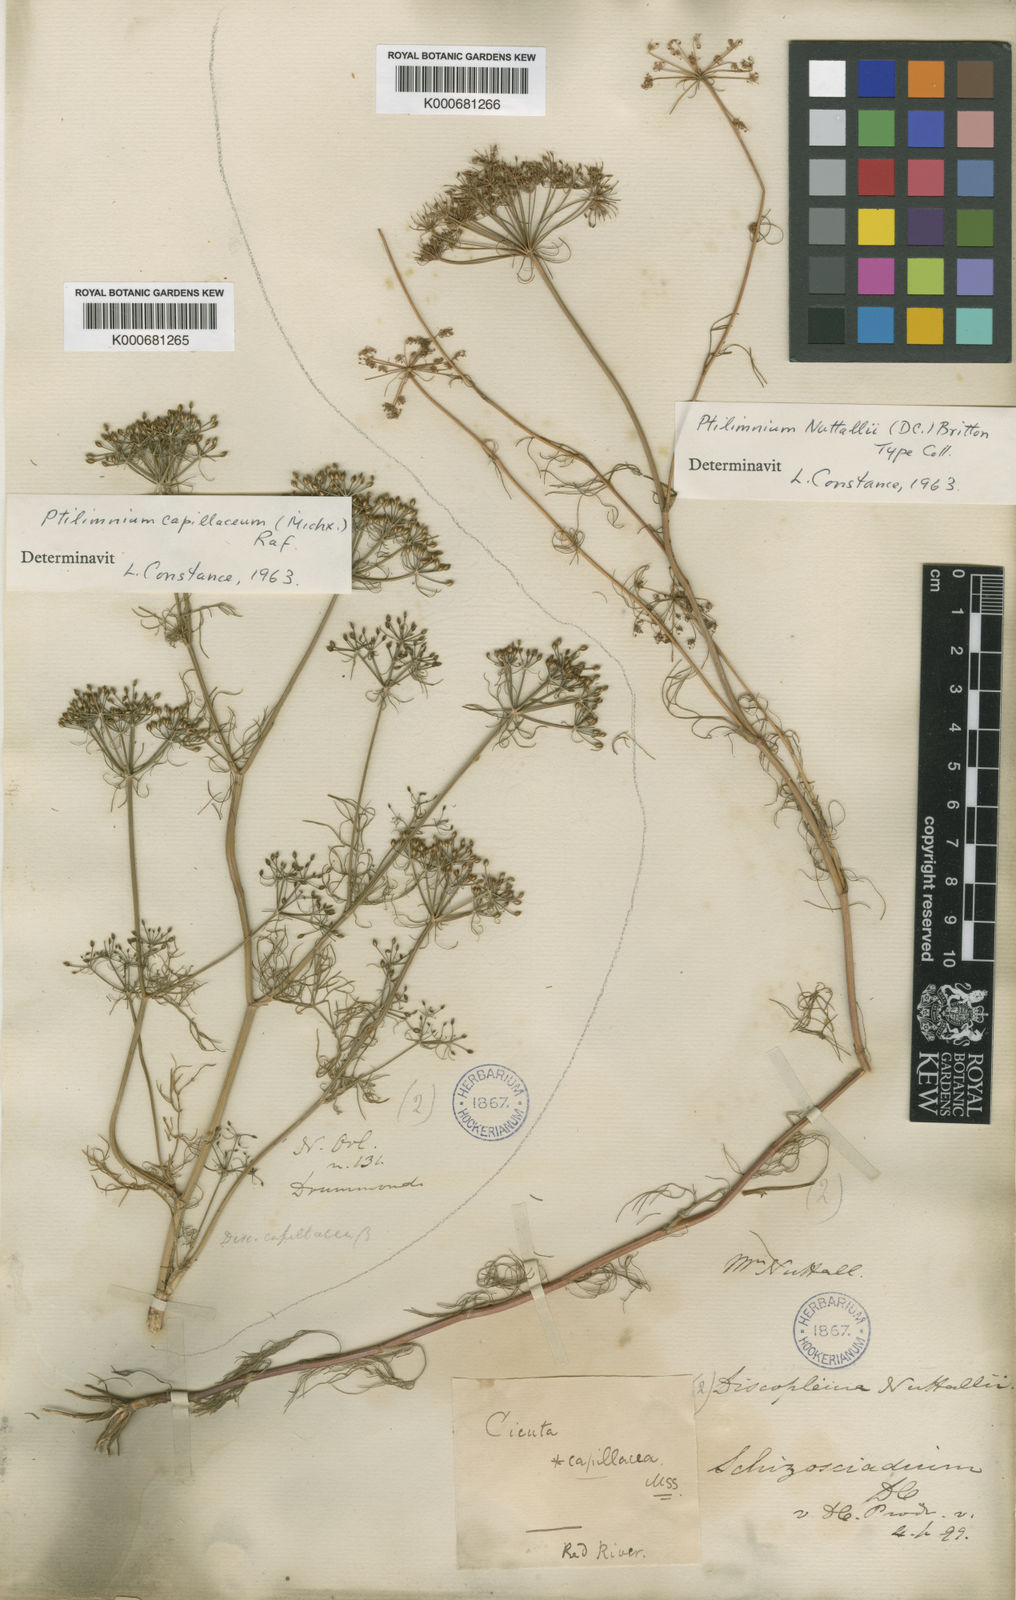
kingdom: Plantae
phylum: Tracheophyta
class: Magnoliopsida
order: Apiales
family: Apiaceae
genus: Ptilimnium
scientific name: Ptilimnium nuttallii
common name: Ozark bishop's-weed
